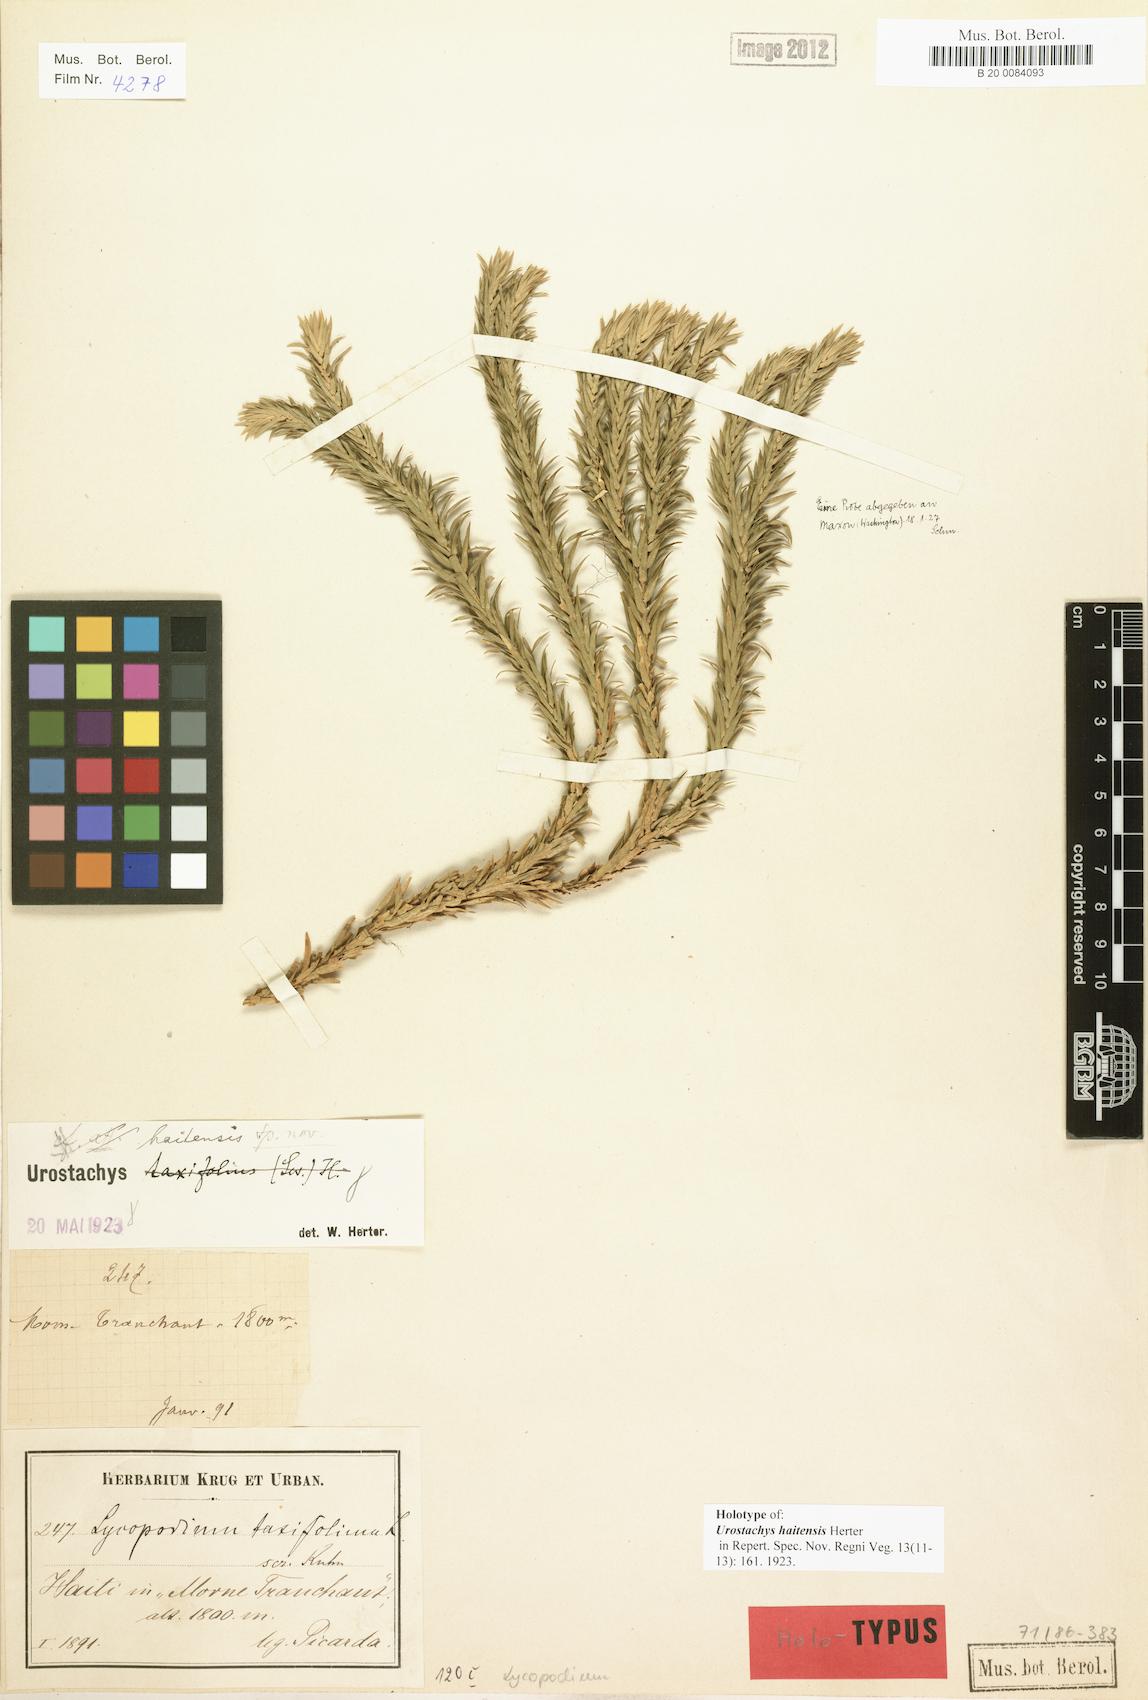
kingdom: Plantae
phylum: Tracheophyta
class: Lycopodiopsida
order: Lycopodiales
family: Lycopodiaceae
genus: Phlegmariurus
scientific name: Phlegmariurus haitensis
